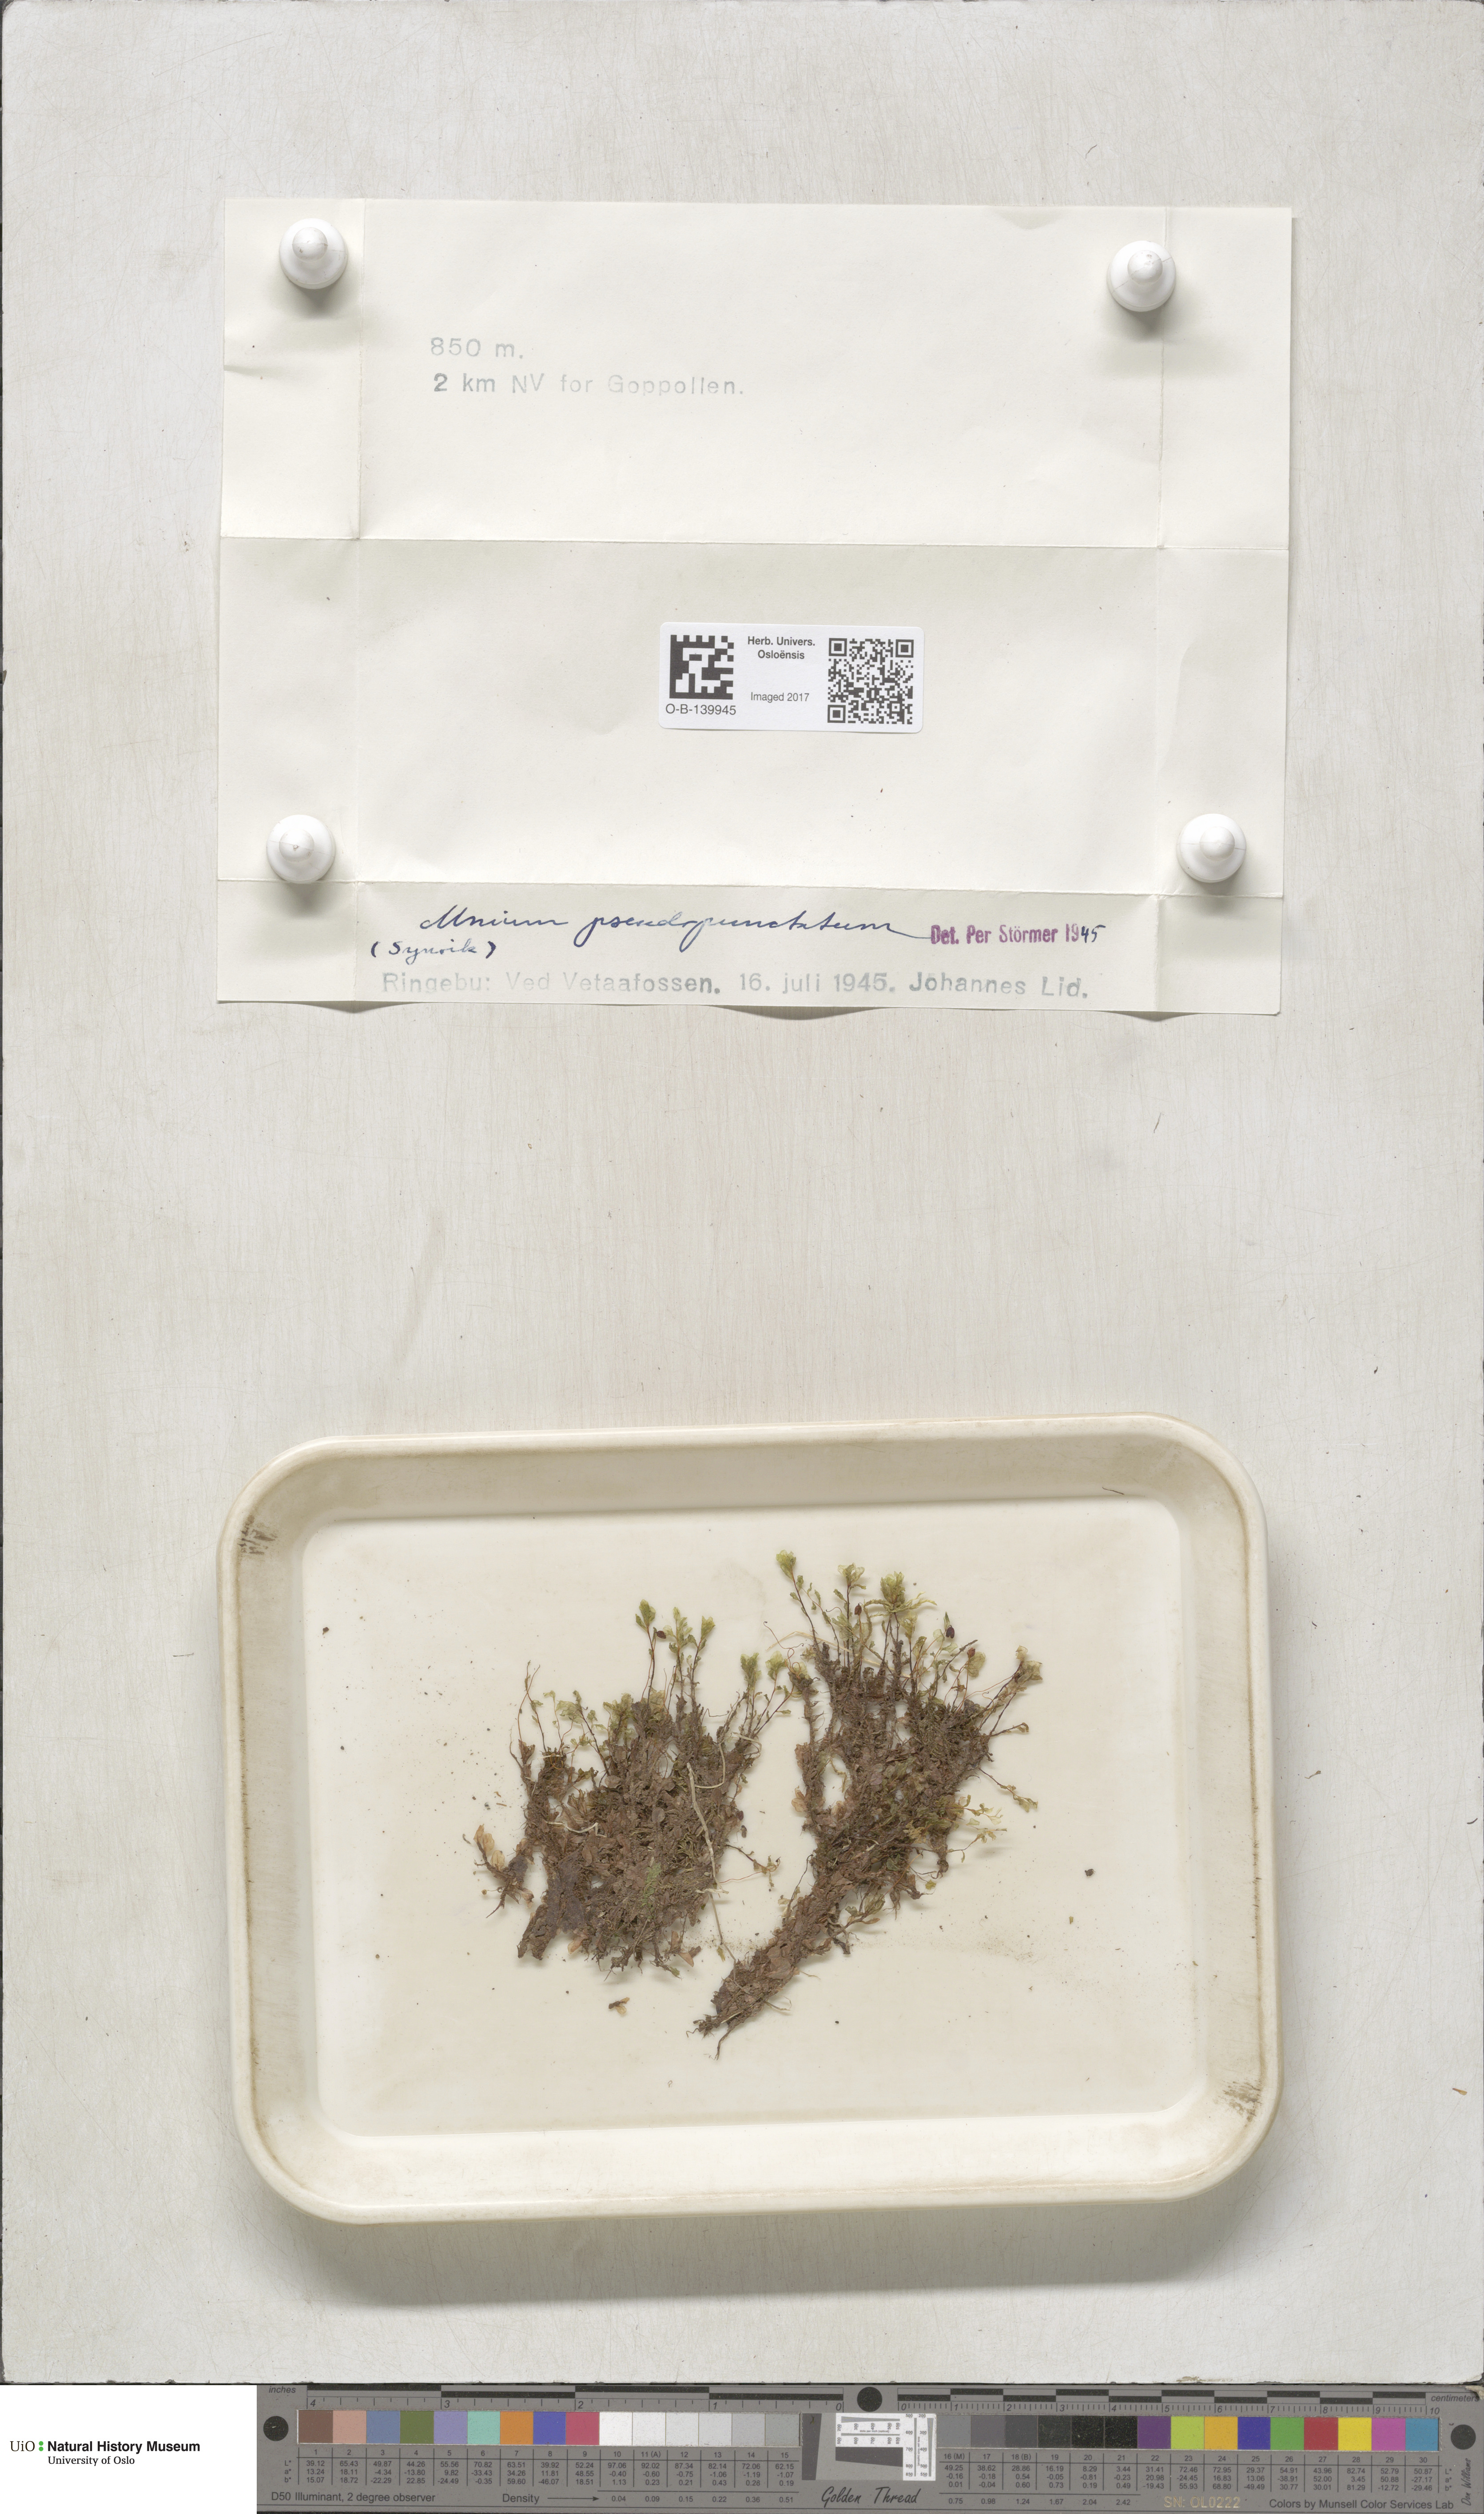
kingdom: Plantae
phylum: Bryophyta
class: Bryopsida
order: Bryales
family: Mniaceae
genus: Rhizomnium
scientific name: Rhizomnium pseudopunctatum
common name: Felted leafy moss
